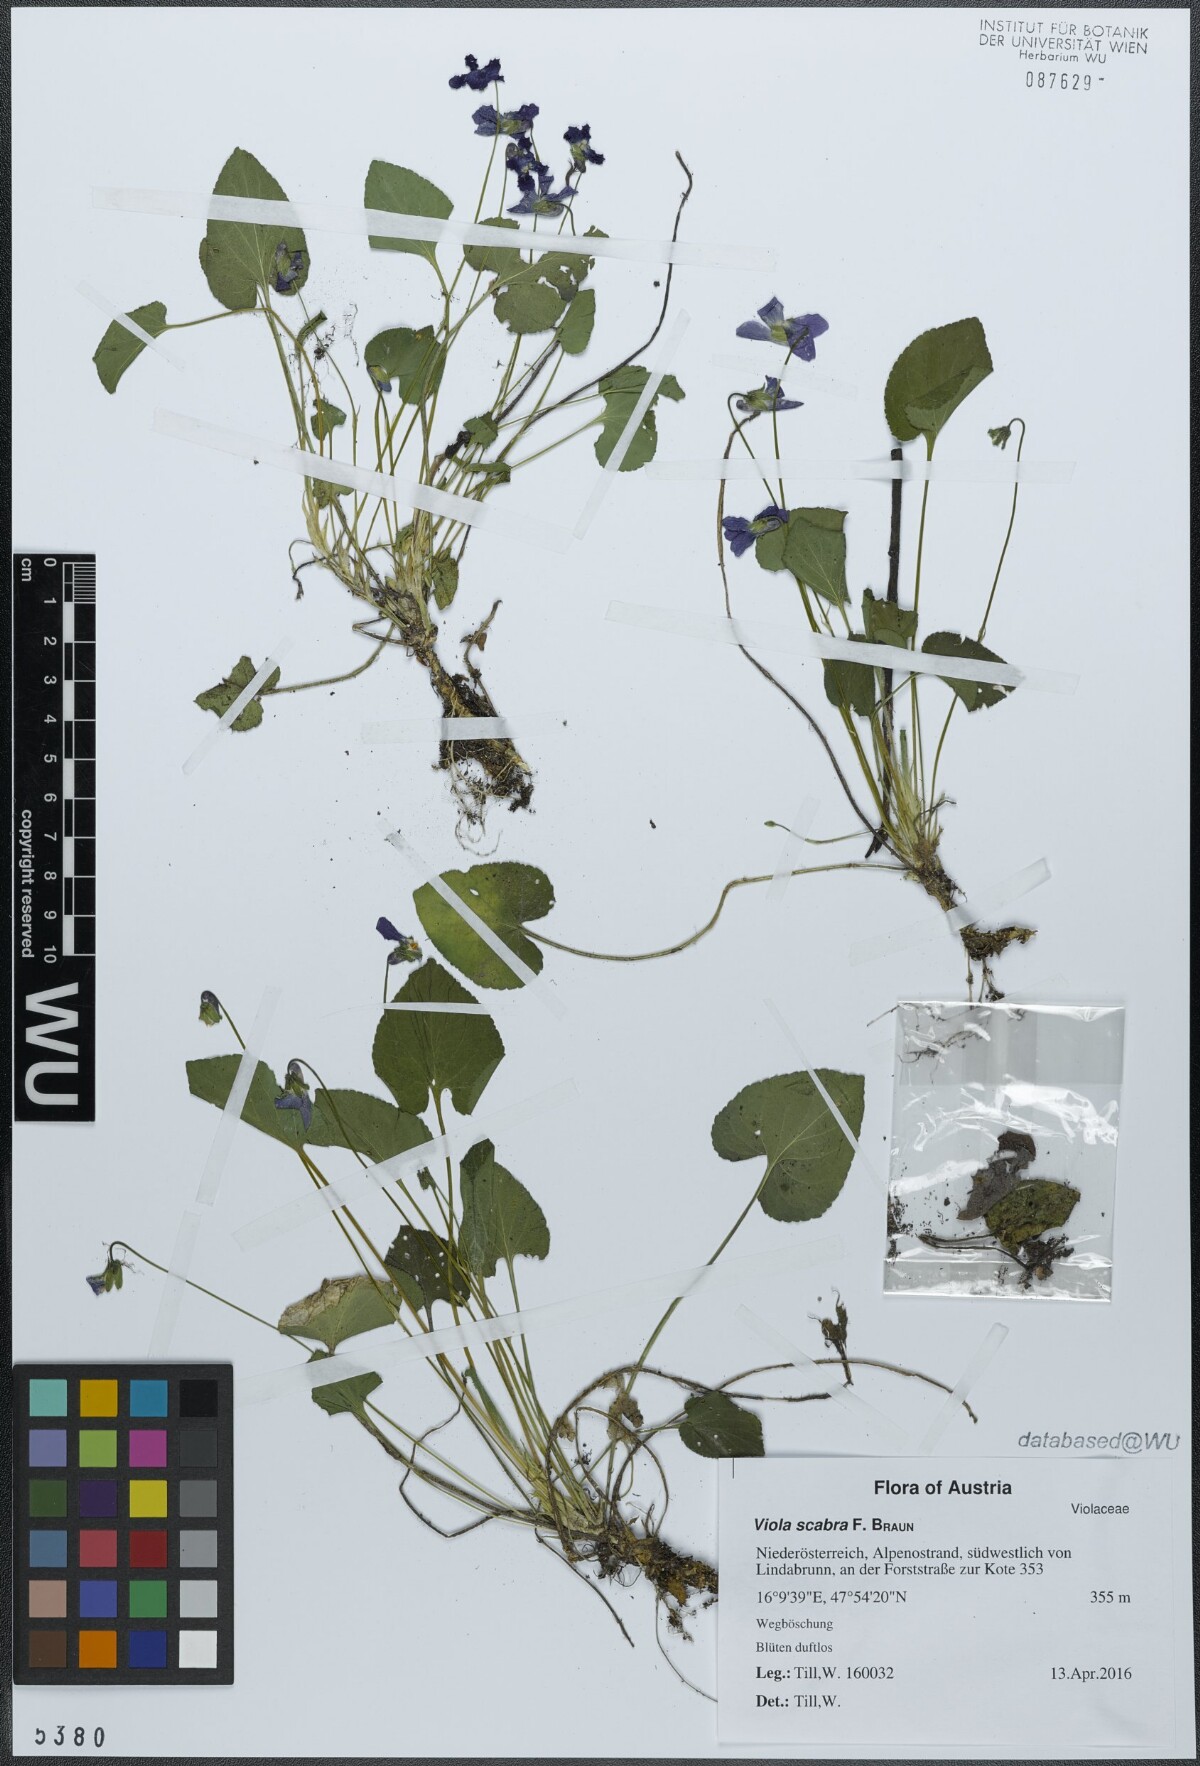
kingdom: Plantae
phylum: Tracheophyta
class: Magnoliopsida
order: Malpighiales
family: Violaceae
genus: Viola
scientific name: Viola scabra
